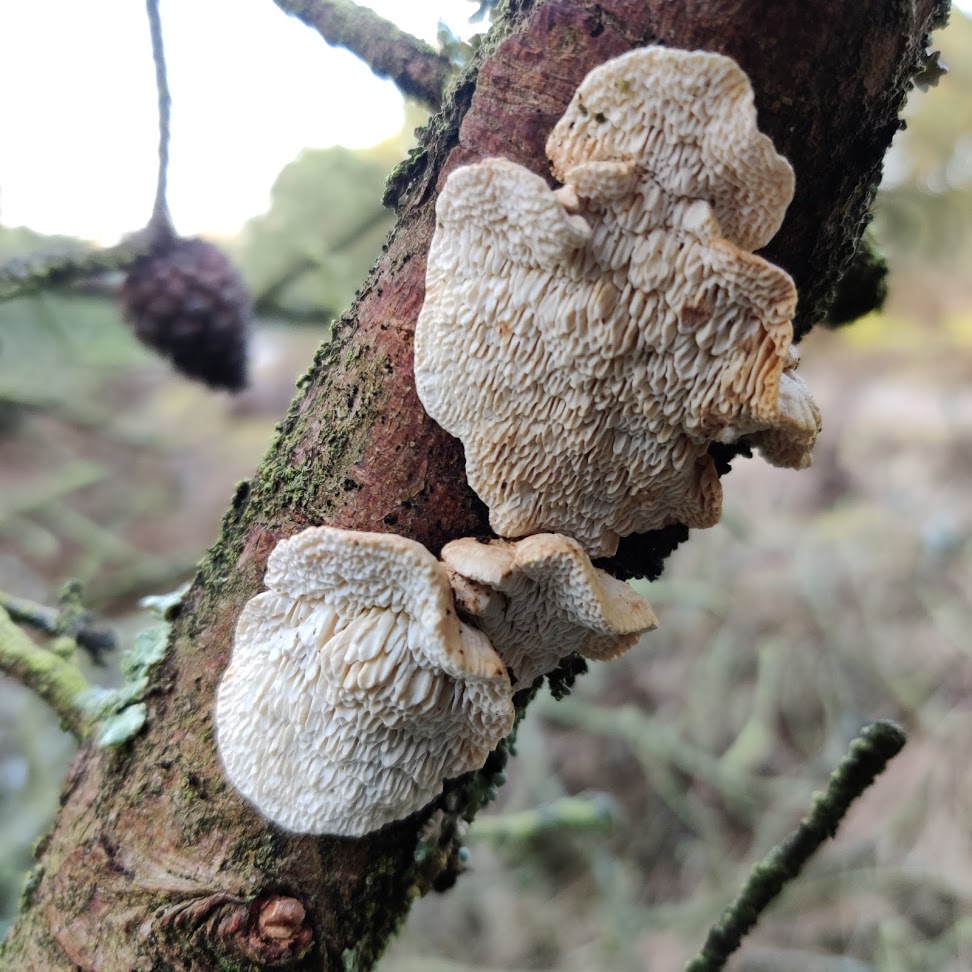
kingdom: Fungi
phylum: Basidiomycota
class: Agaricomycetes
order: Polyporales
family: Fomitopsidaceae
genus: Fomitopsis
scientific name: Fomitopsis
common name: fyrre-skiveporesvamp
